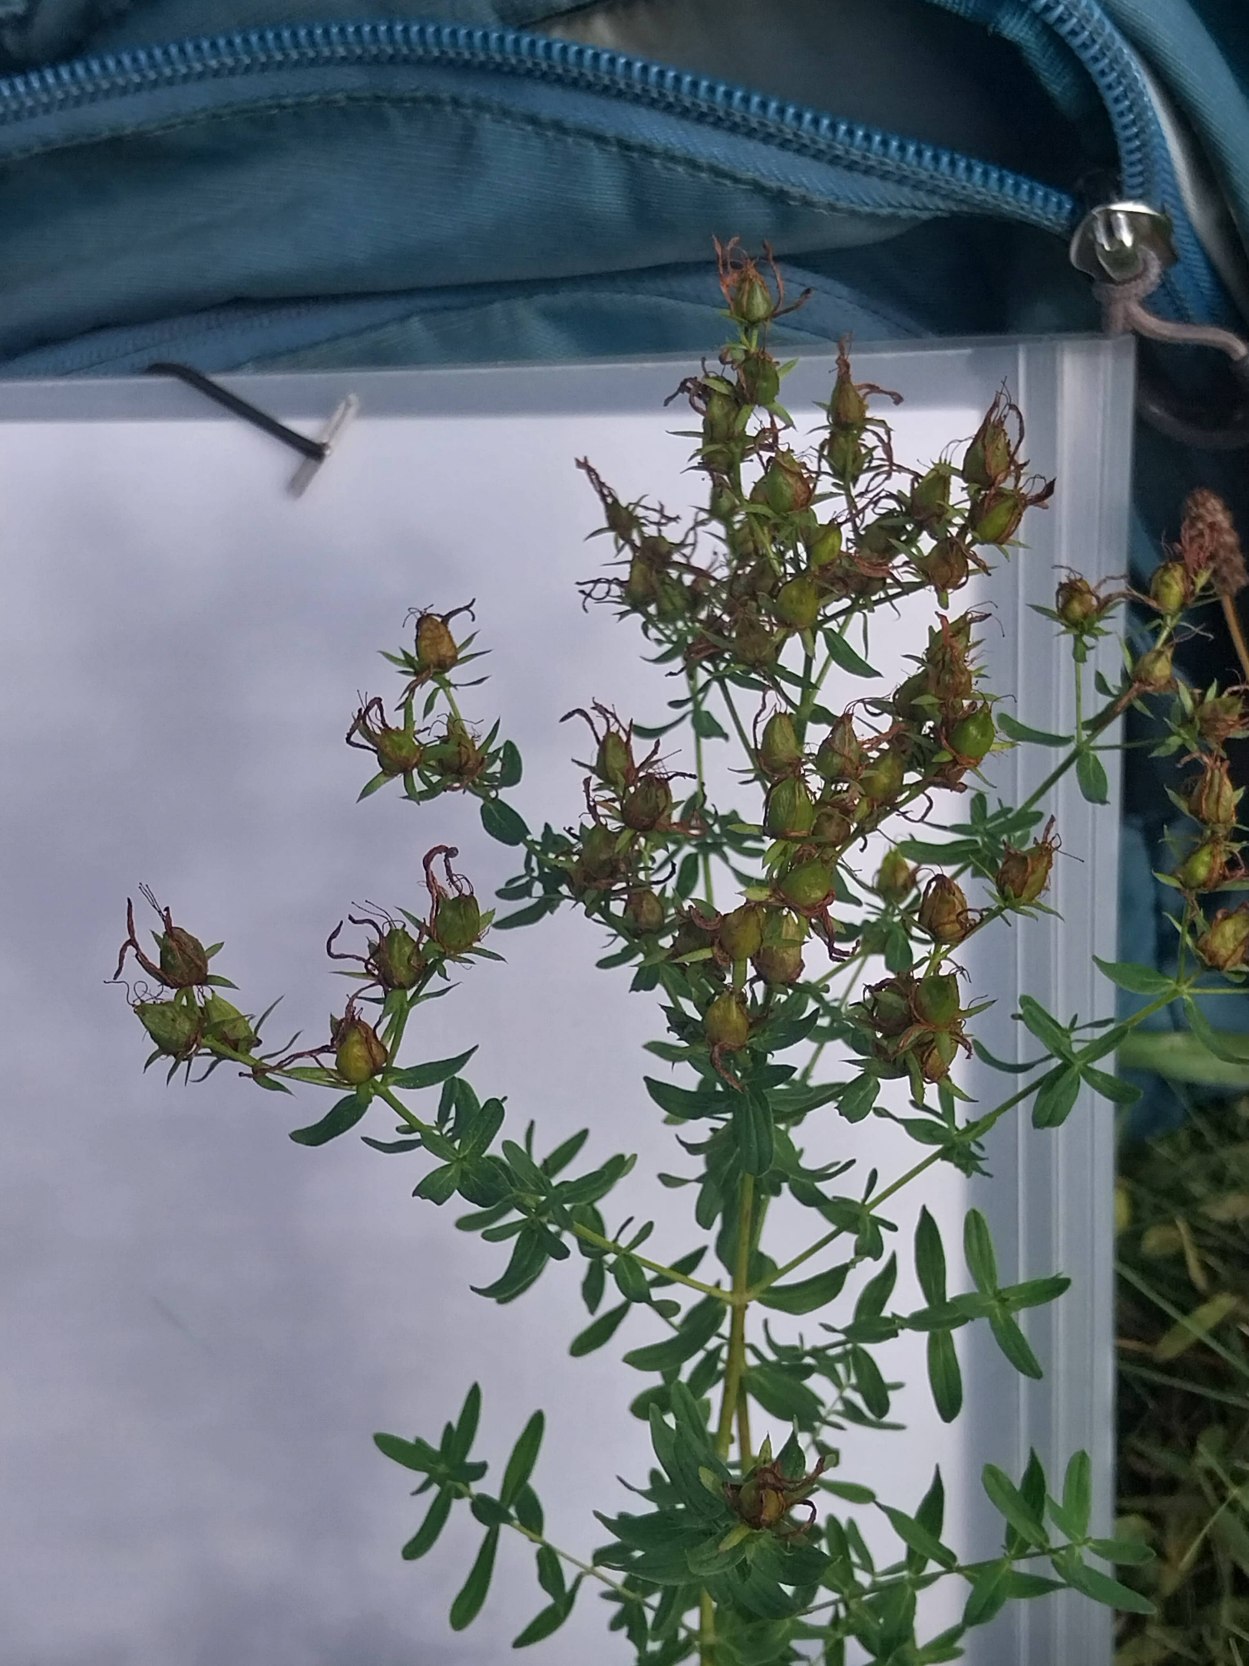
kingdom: Plantae
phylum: Tracheophyta
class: Magnoliopsida
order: Malpighiales
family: Hypericaceae
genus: Hypericum
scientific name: Hypericum perforatum
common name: Prikbladet perikon
